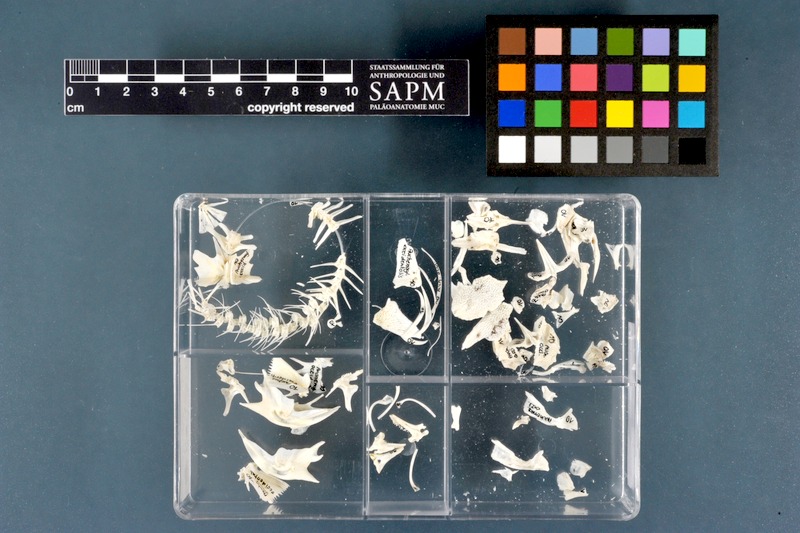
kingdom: Animalia
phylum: Chordata
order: Siluriformes
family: Claroteidae
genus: Auchenoglanis
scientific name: Auchenoglanis occidentalis
